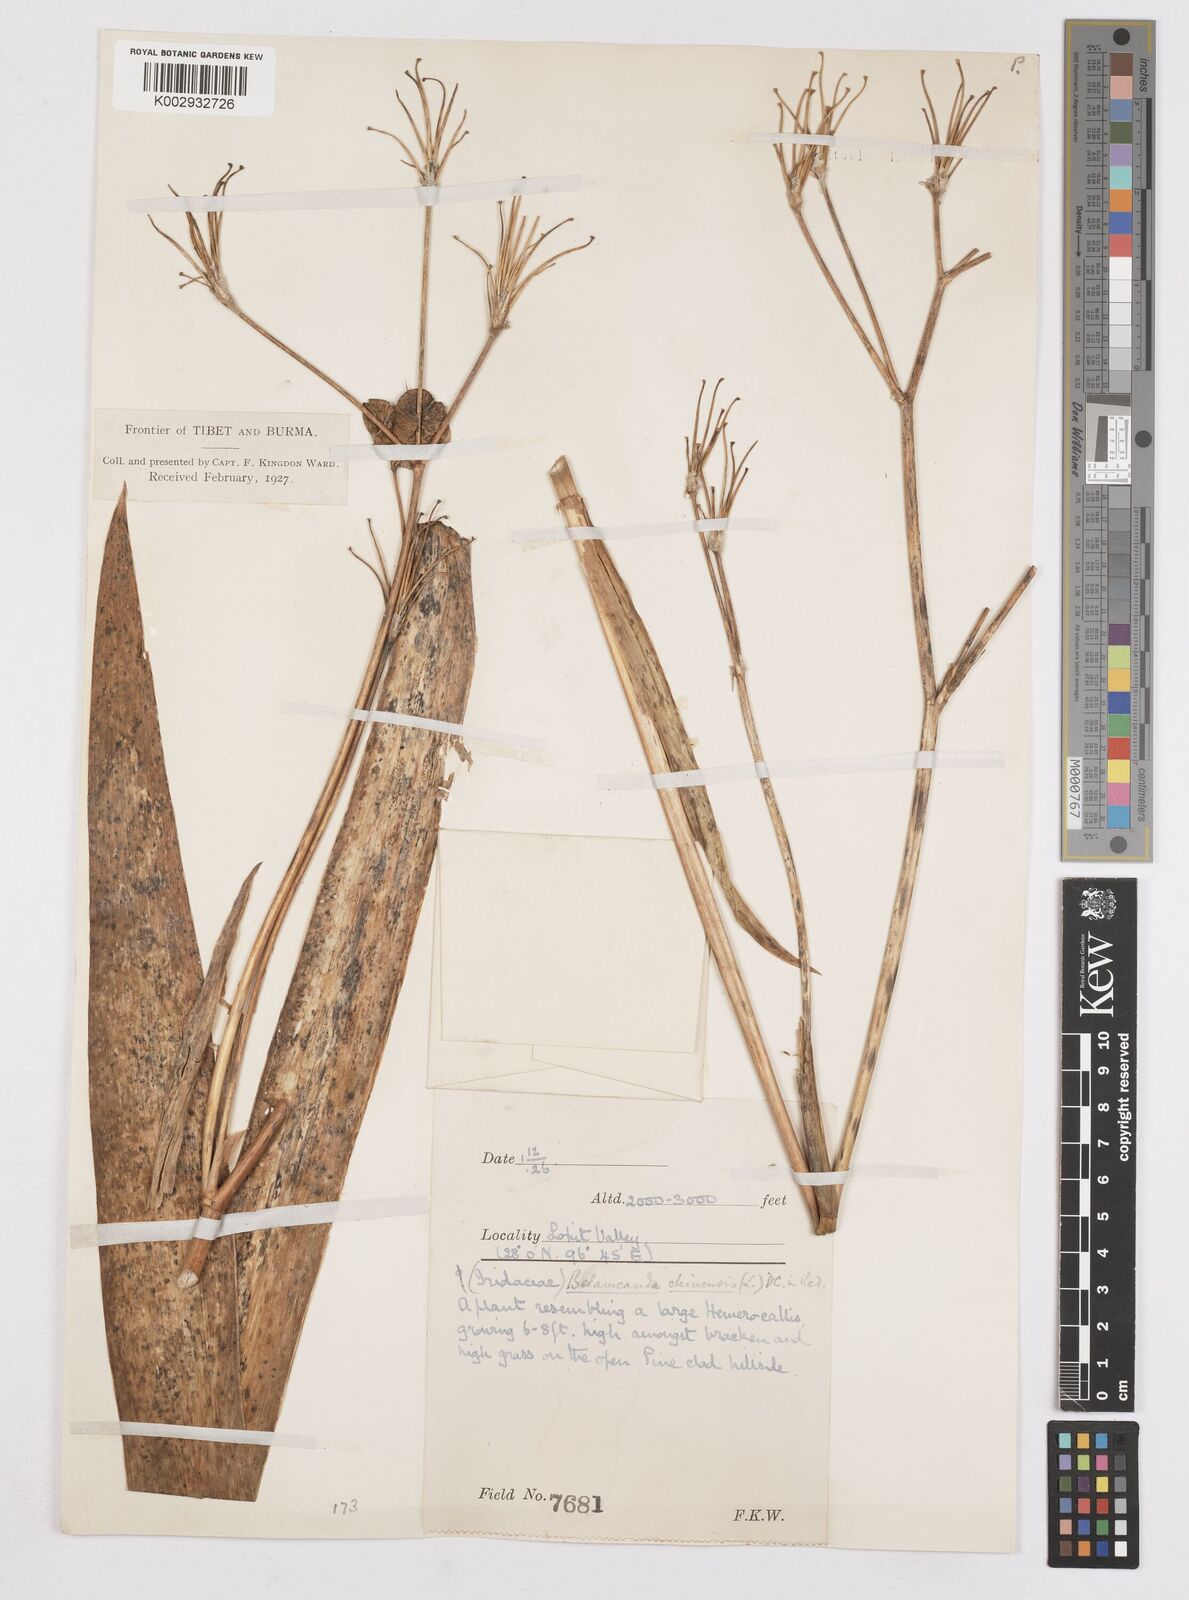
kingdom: Plantae
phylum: Tracheophyta
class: Liliopsida
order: Asparagales
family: Iridaceae
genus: Iris
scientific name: Iris
